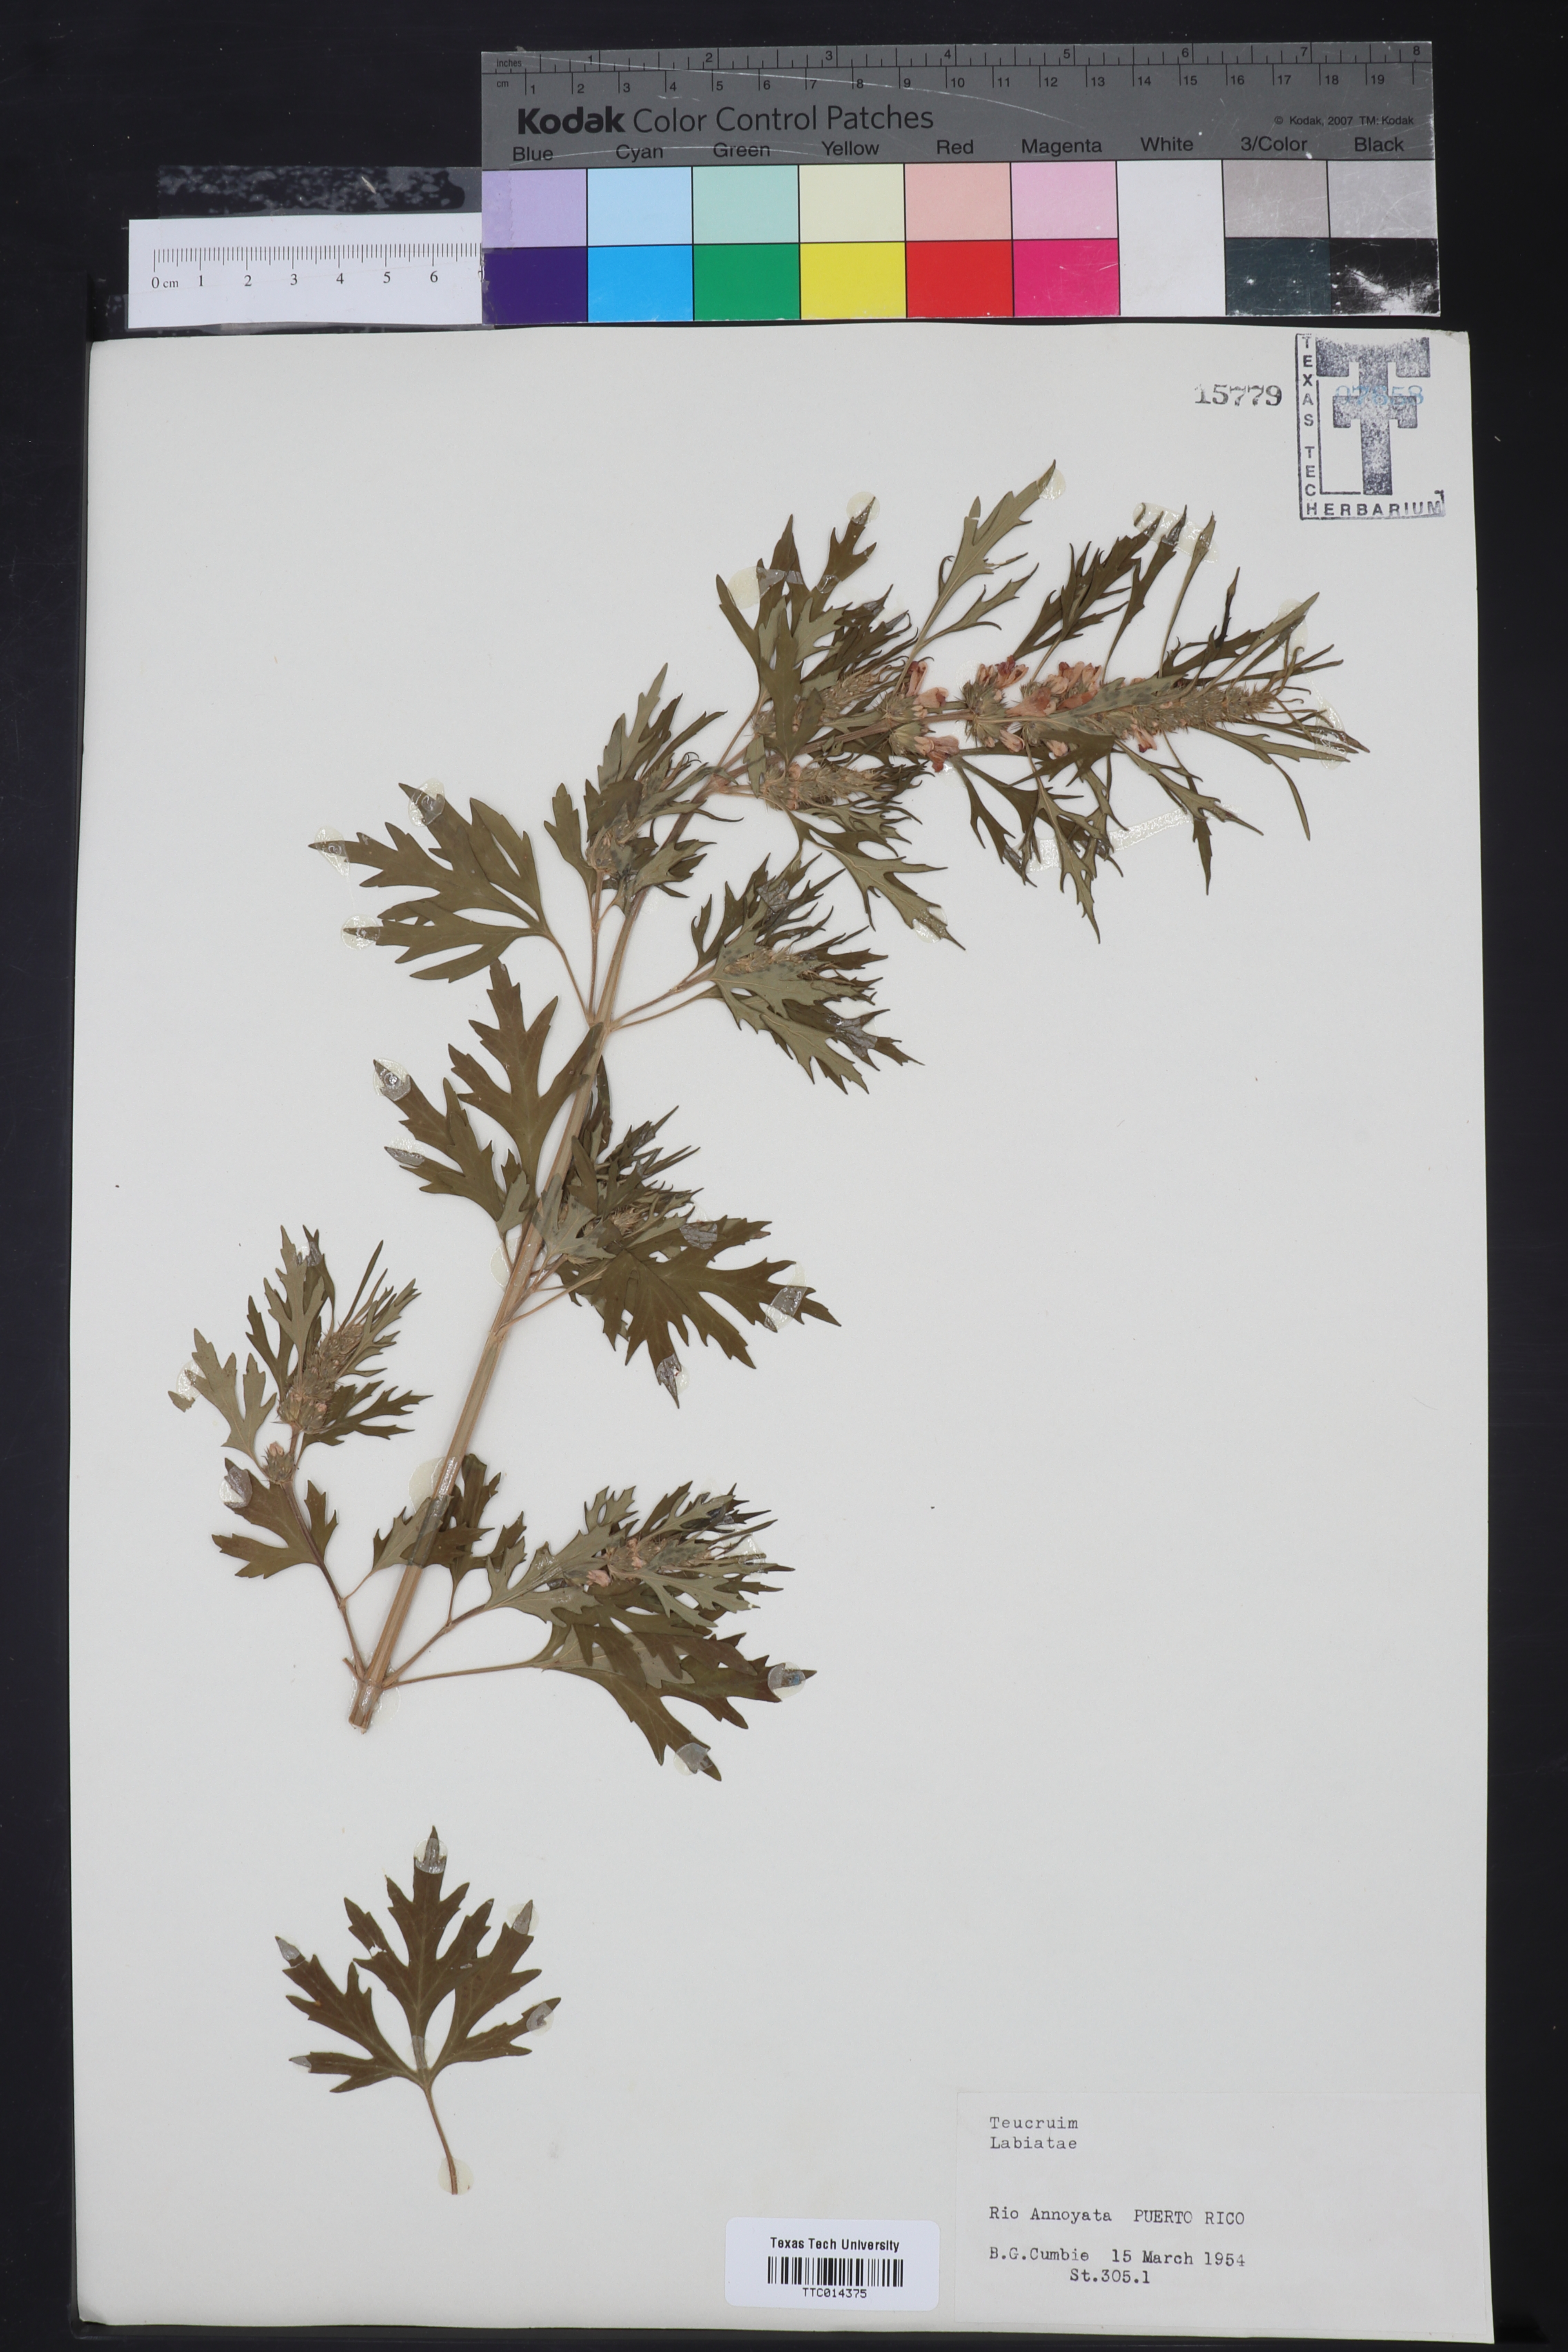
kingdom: Plantae
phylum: Tracheophyta
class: Magnoliopsida
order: Lamiales
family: Lamiaceae
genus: Teucrium
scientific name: Teucrium
